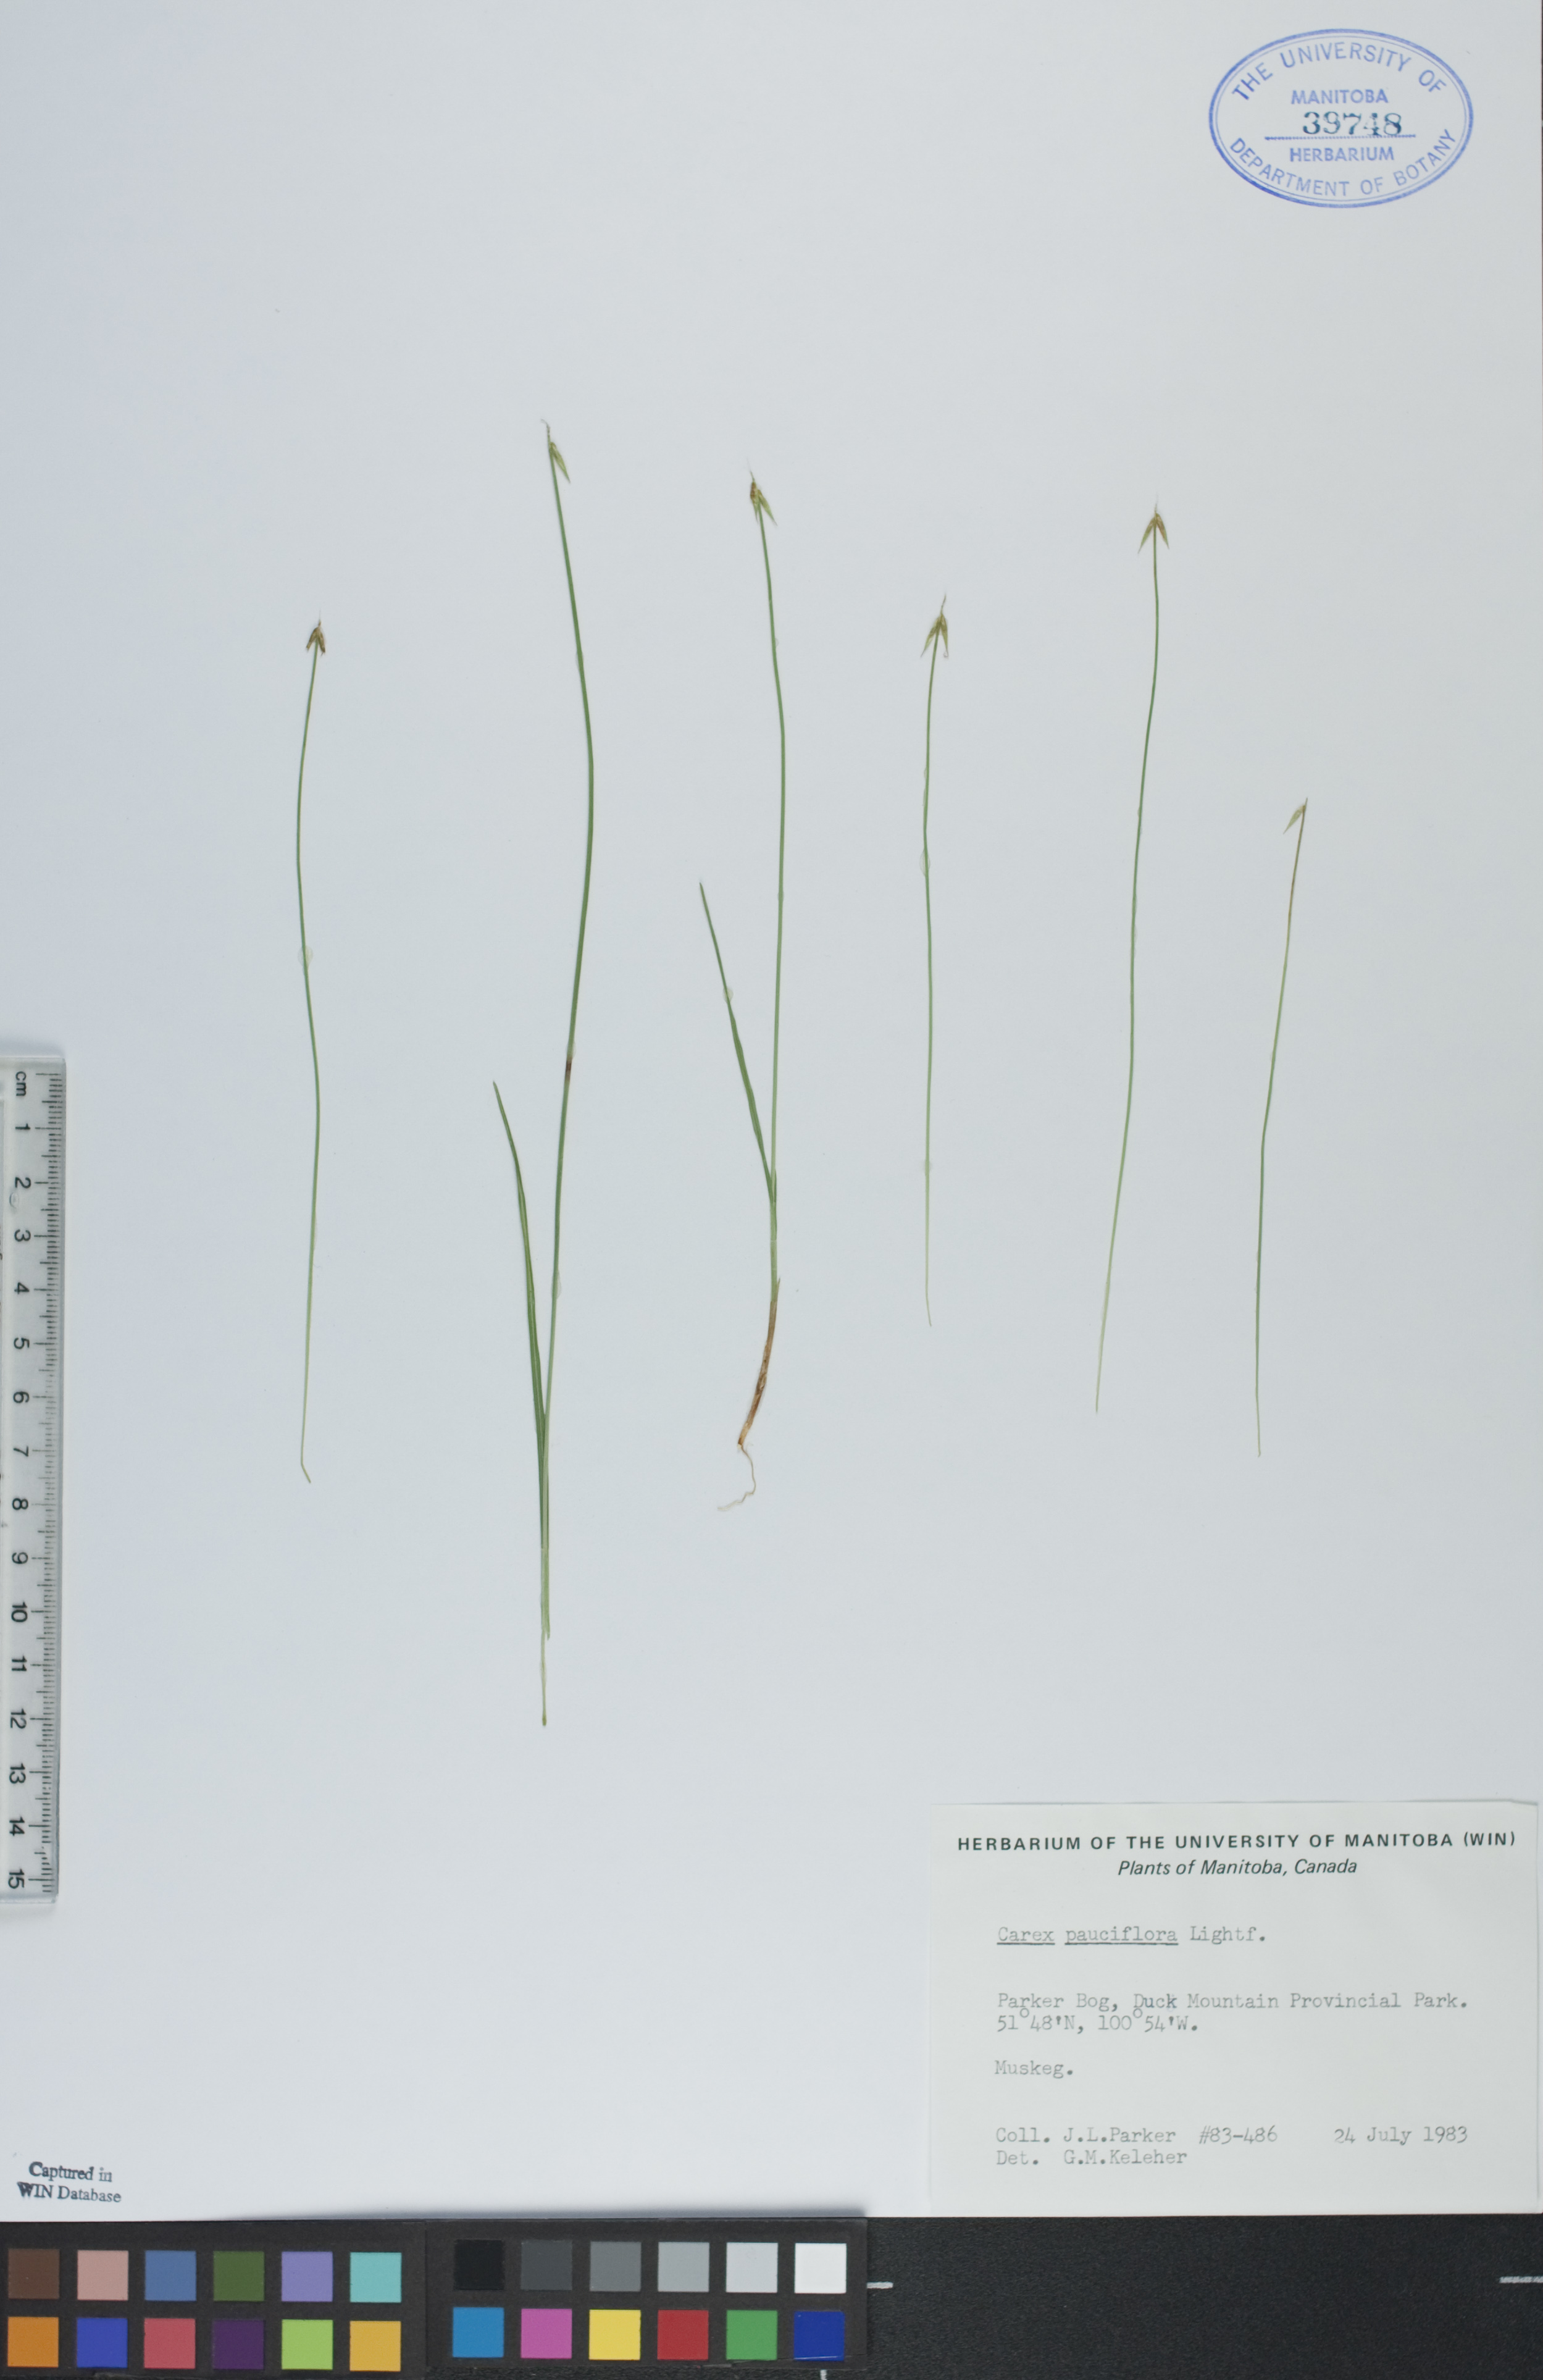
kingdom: Plantae
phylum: Tracheophyta
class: Liliopsida
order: Poales
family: Cyperaceae
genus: Carex
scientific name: Carex pauciflora
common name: Few-flowered sedge
